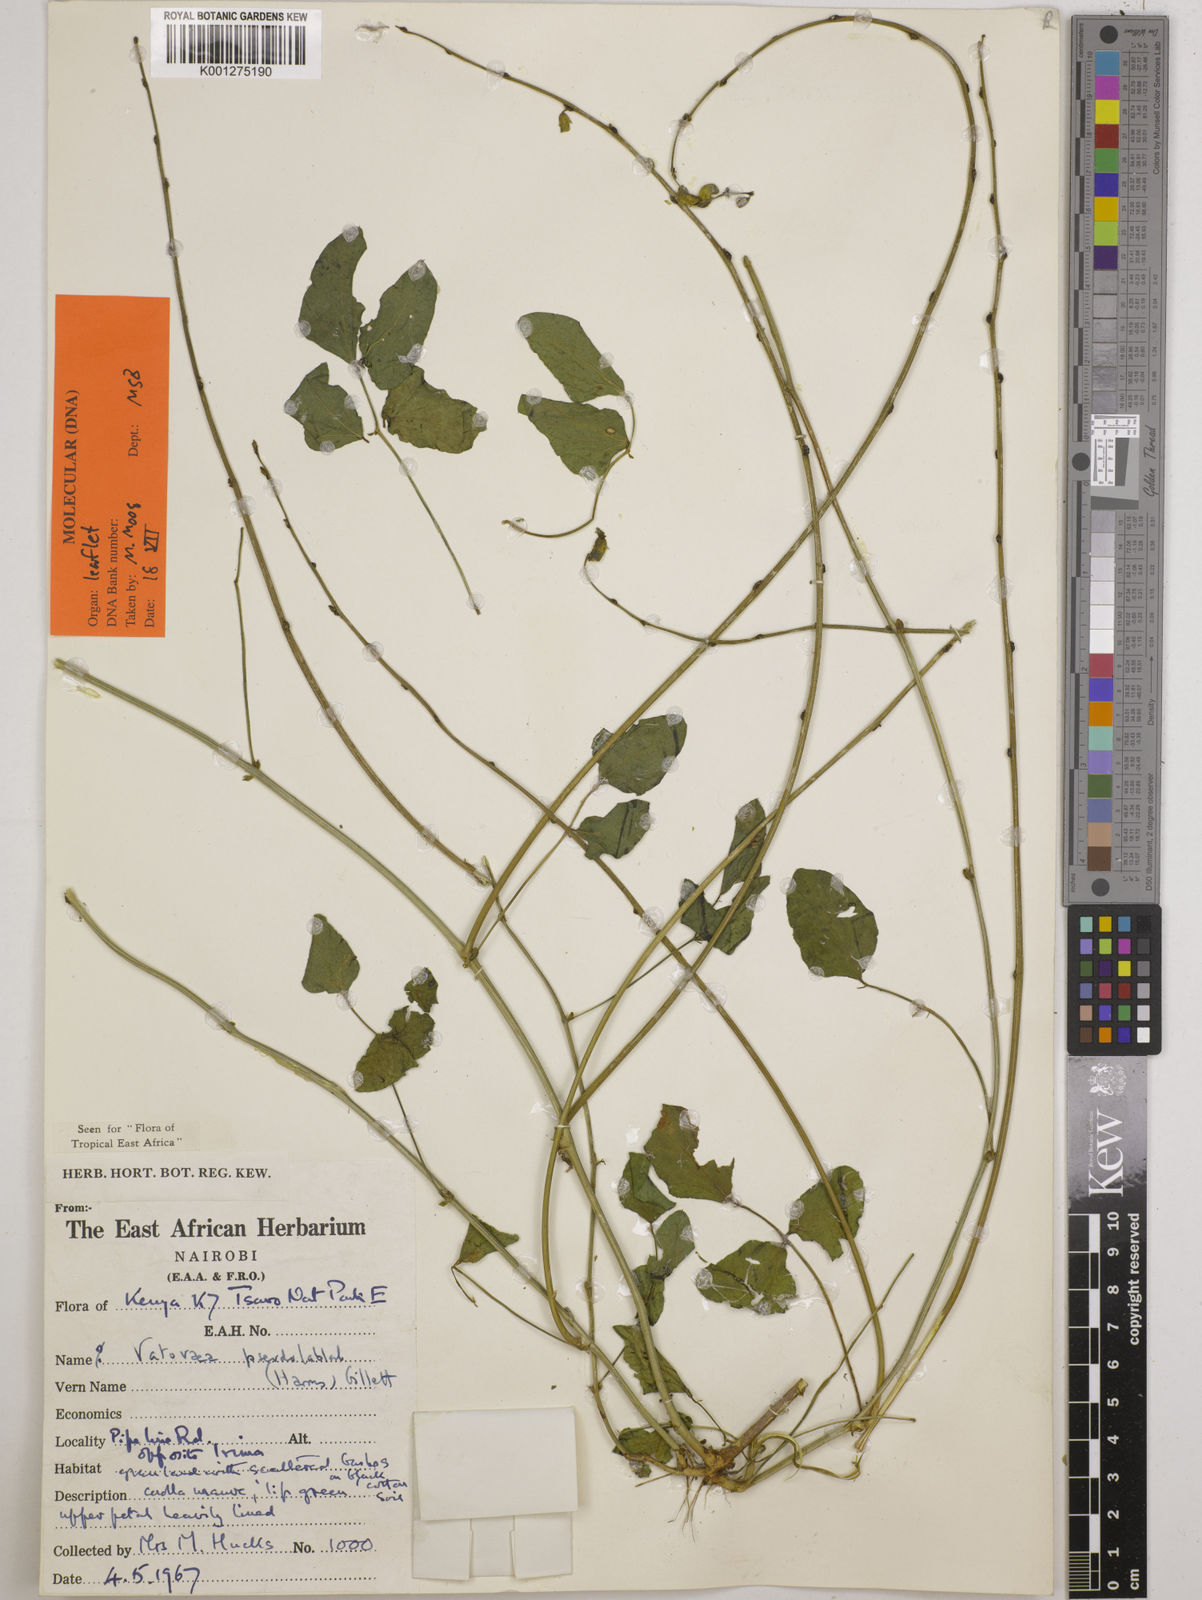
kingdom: Plantae
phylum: Tracheophyta
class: Magnoliopsida
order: Fabales
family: Fabaceae
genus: Vatovaea
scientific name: Vatovaea pseudolablab
